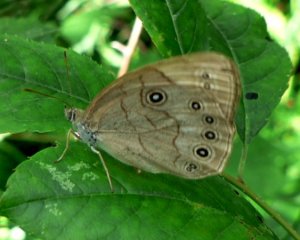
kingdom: Animalia
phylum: Arthropoda
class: Insecta
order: Lepidoptera
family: Nymphalidae
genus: Lethe
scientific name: Lethe eurydice
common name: Appalachian Eyed Brown
